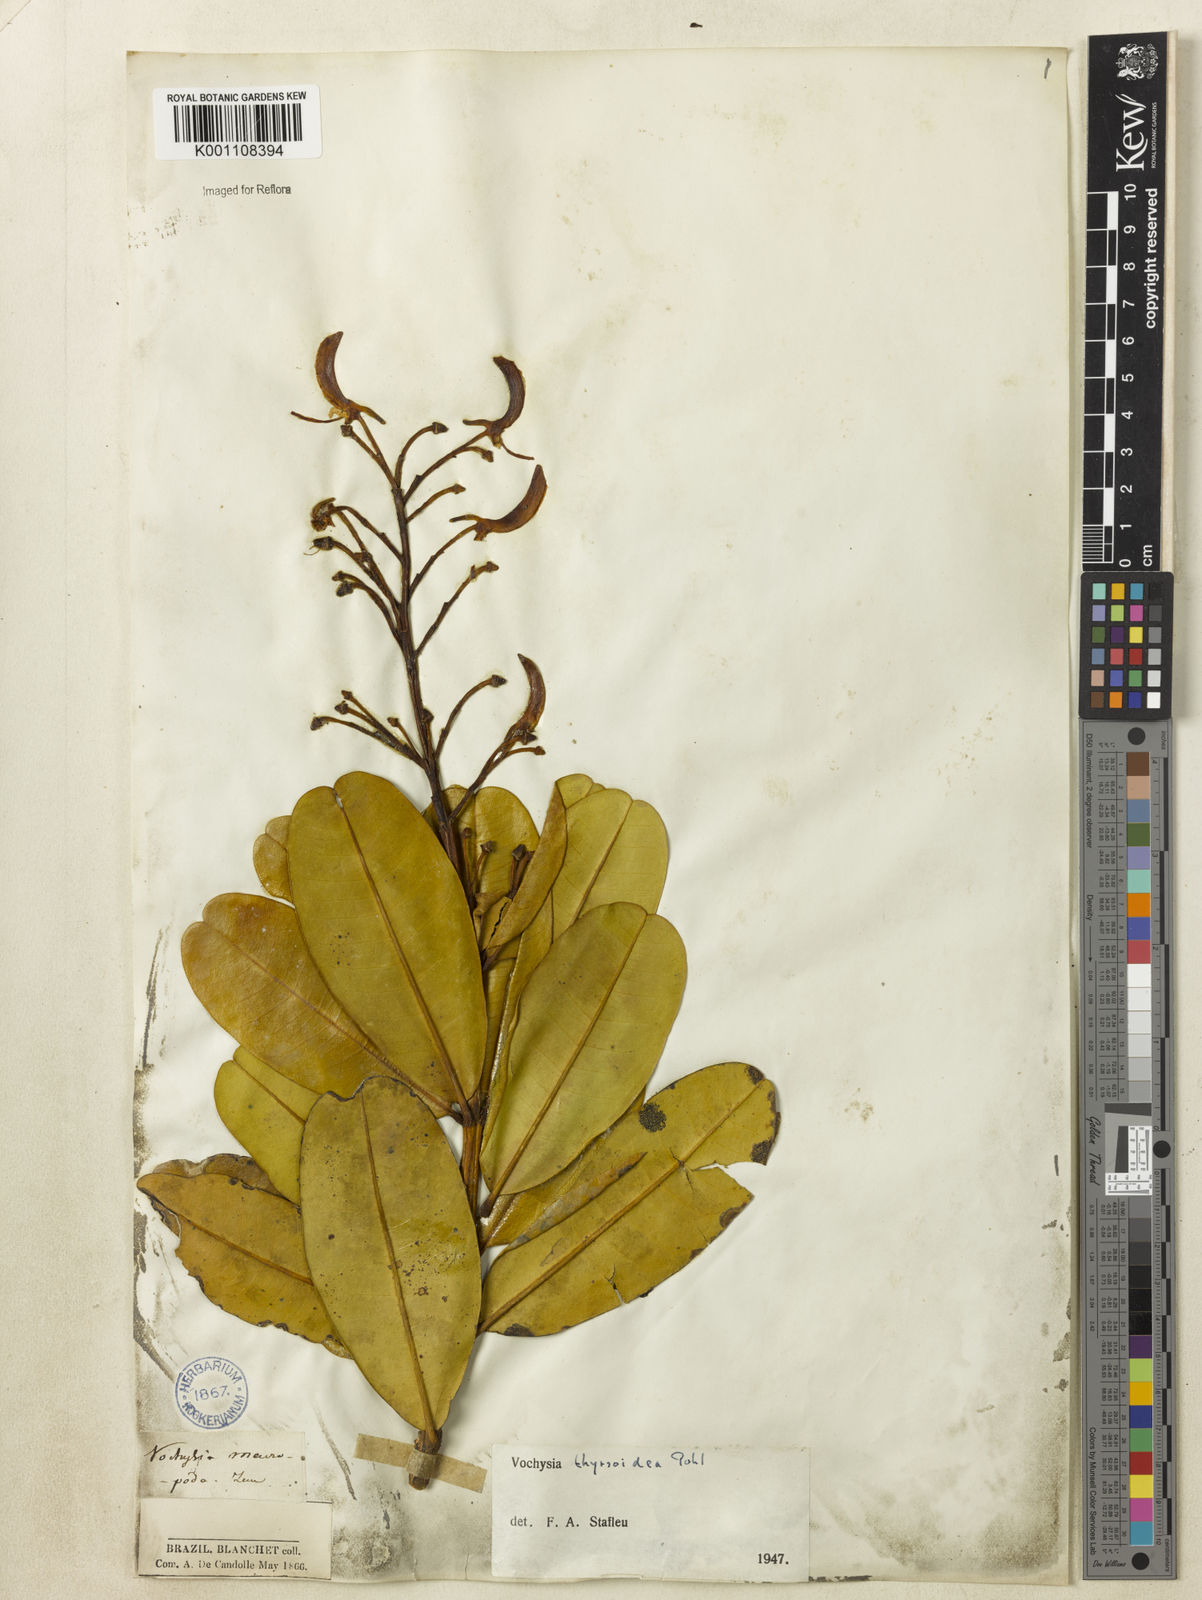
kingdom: Plantae
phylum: Tracheophyta
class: Magnoliopsida
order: Myrtales
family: Vochysiaceae
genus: Vochysia
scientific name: Vochysia thyrsoidea
